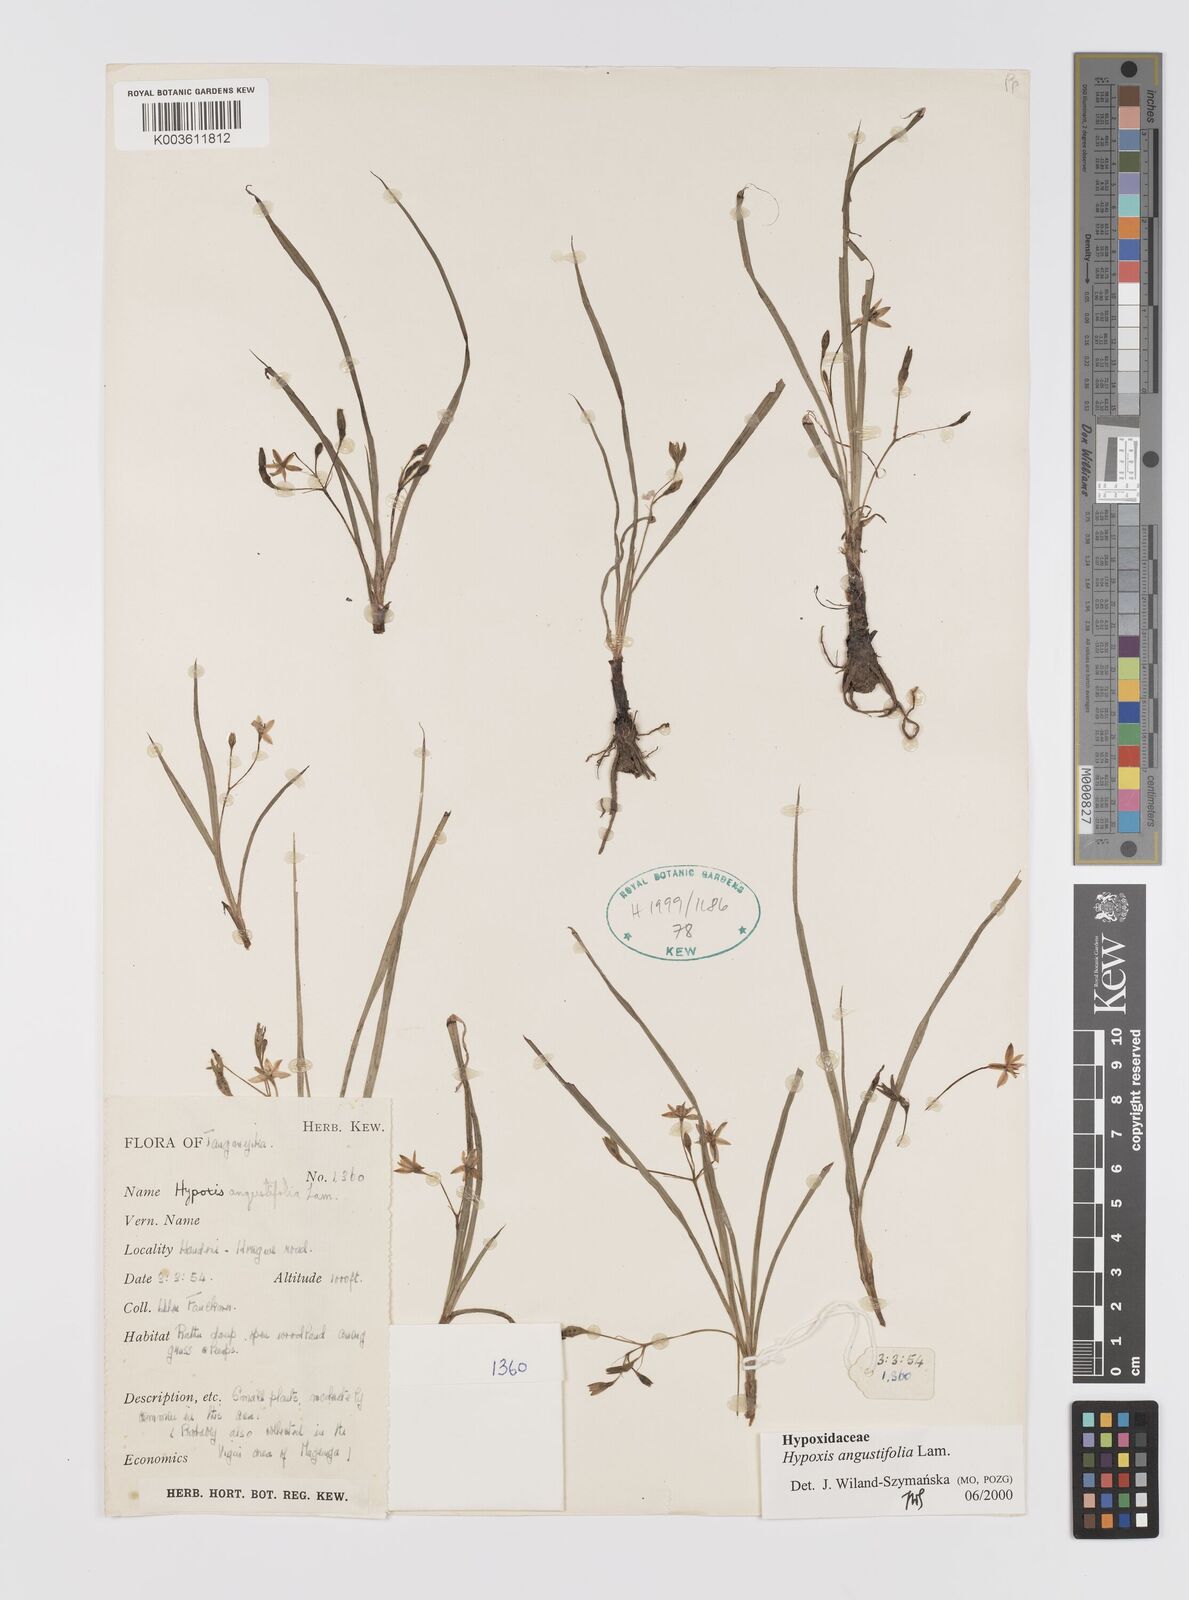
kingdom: Plantae
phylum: Tracheophyta
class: Liliopsida
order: Asparagales
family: Hypoxidaceae
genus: Hypoxis
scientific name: Hypoxis angustifolia
